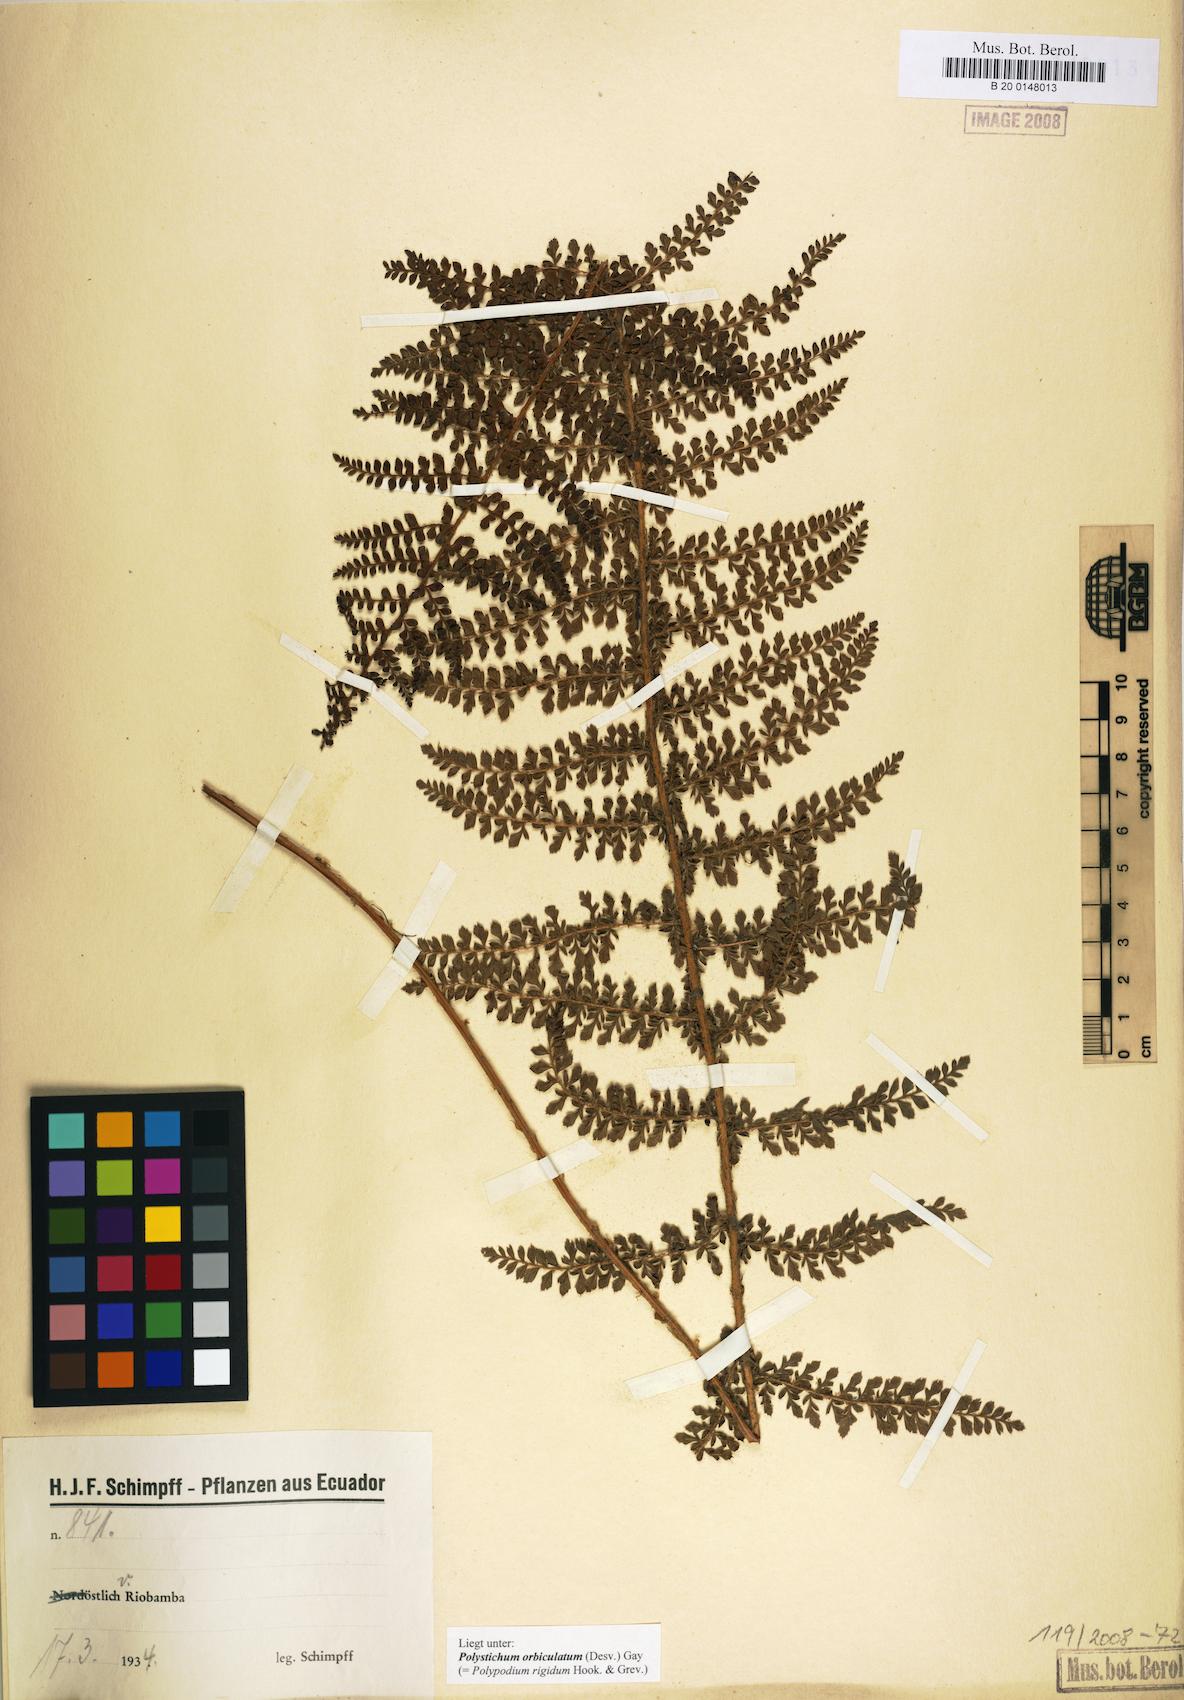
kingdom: Plantae
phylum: Tracheophyta
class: Polypodiopsida
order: Polypodiales
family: Dryopteridaceae
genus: Polystichum
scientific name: Polystichum orbiculatum
